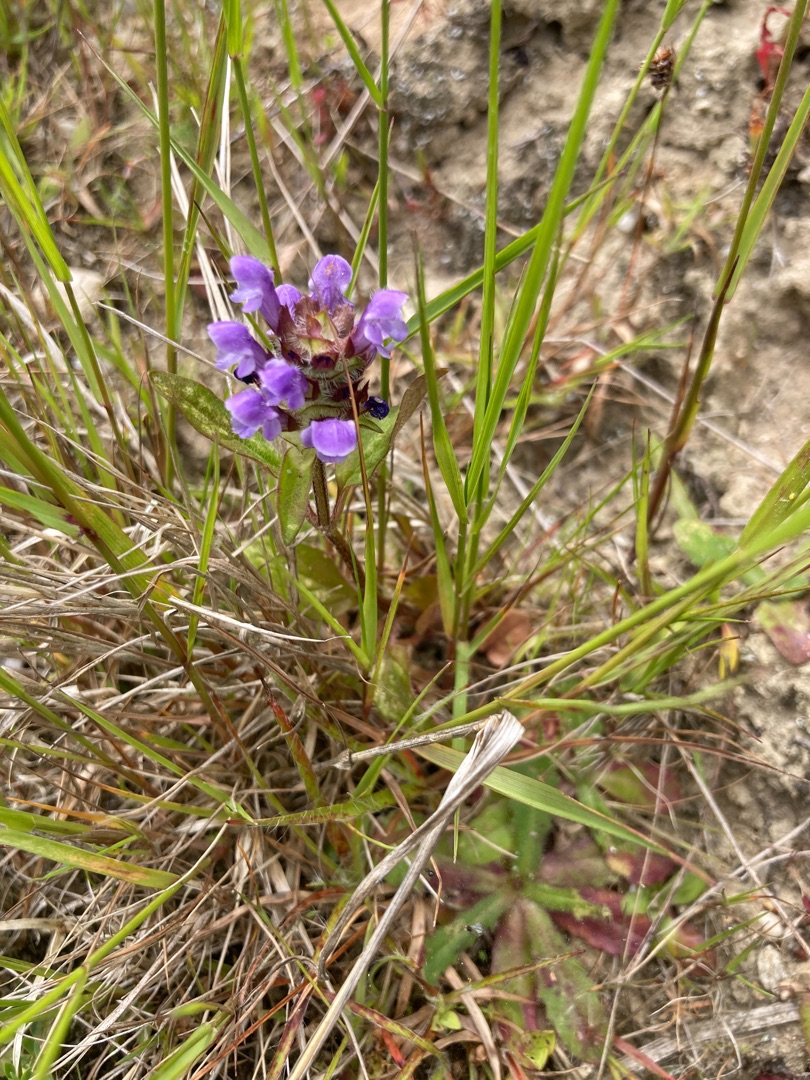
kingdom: Plantae
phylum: Tracheophyta
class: Magnoliopsida
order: Lamiales
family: Lamiaceae
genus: Prunella
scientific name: Prunella vulgaris
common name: Almindelig brunelle
